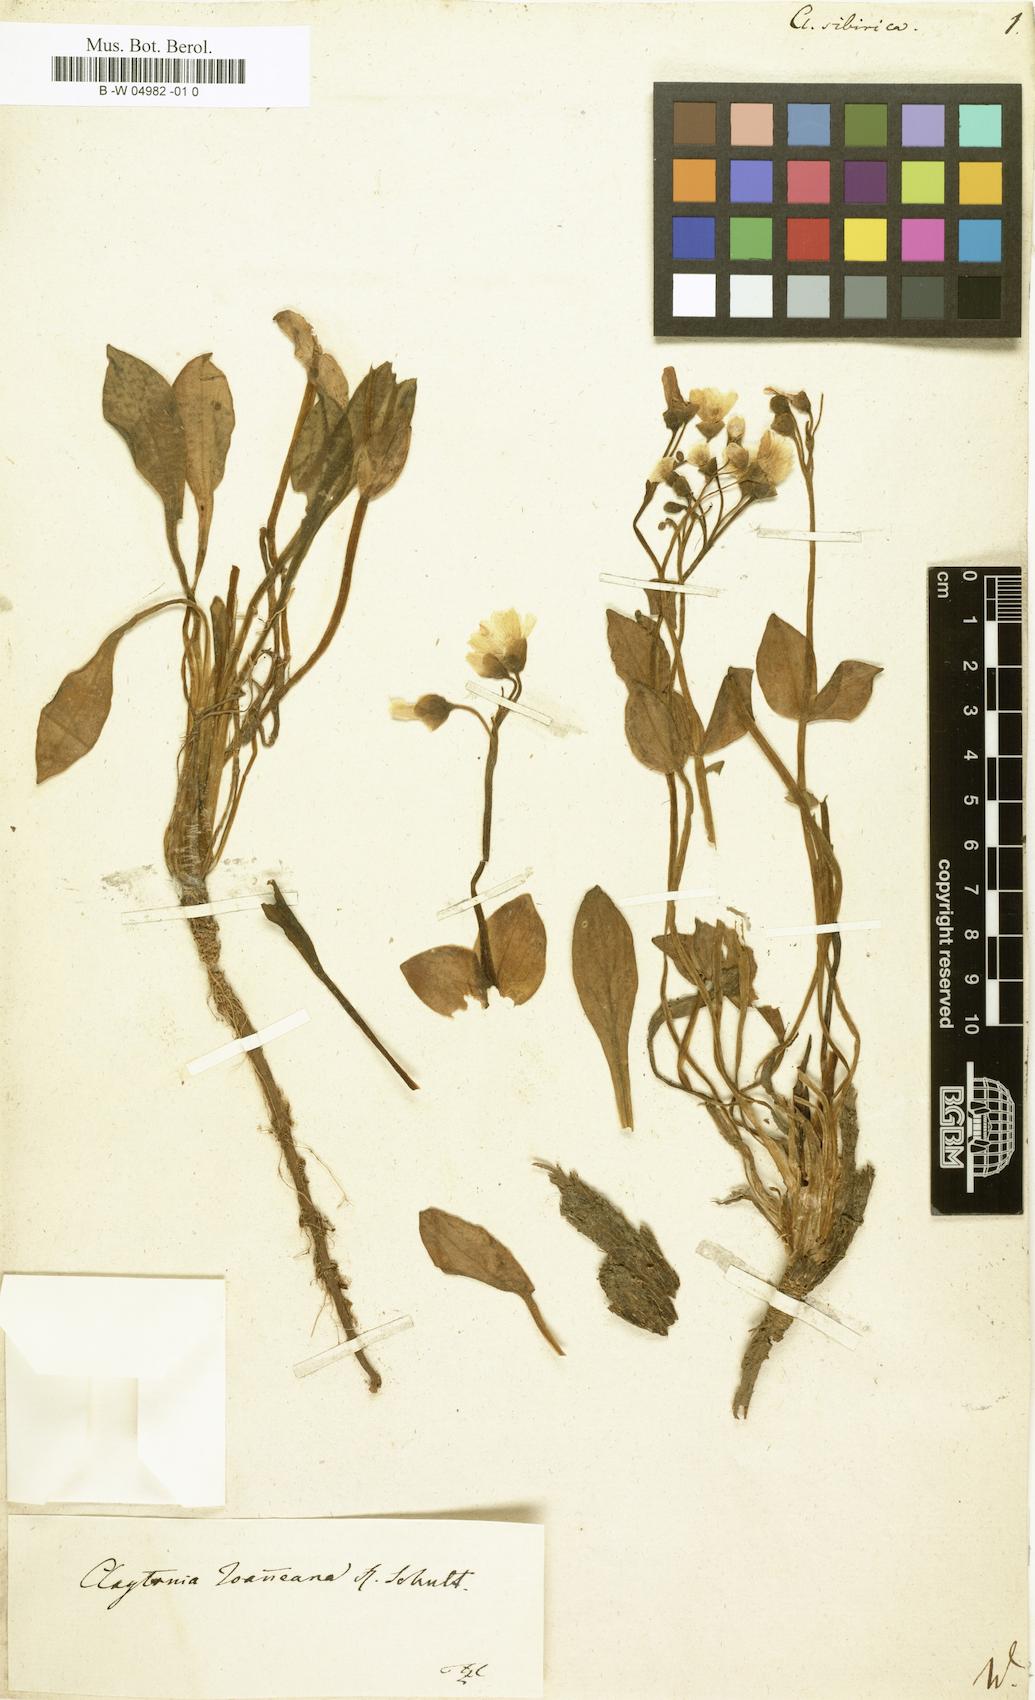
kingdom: Plantae
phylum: Tracheophyta
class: Magnoliopsida
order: Caryophyllales
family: Montiaceae
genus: Claytonia
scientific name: Claytonia sibirica
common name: Pink purslane
